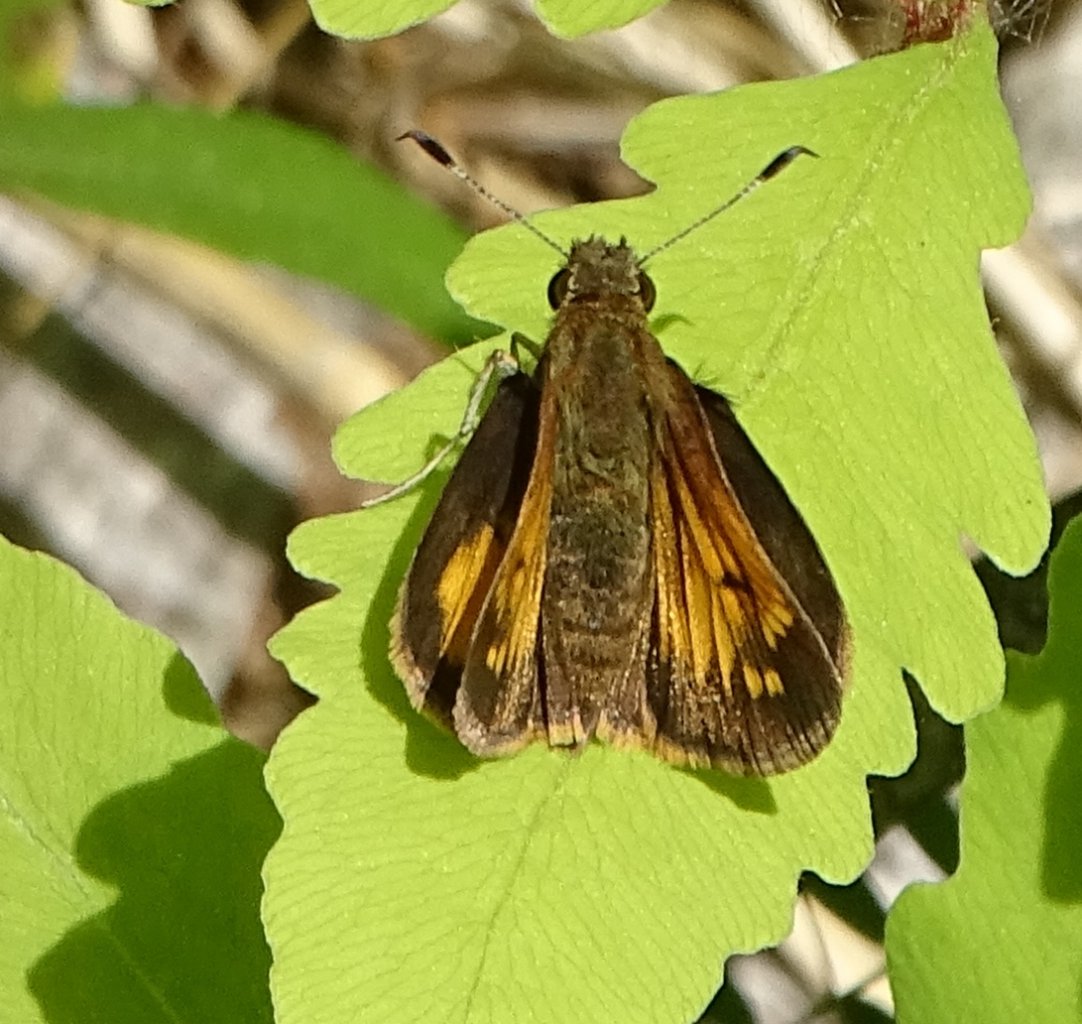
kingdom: Animalia
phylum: Arthropoda
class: Insecta
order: Lepidoptera
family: Hesperiidae
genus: Lon
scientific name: Lon hobomok
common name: Hobomok Skipper
